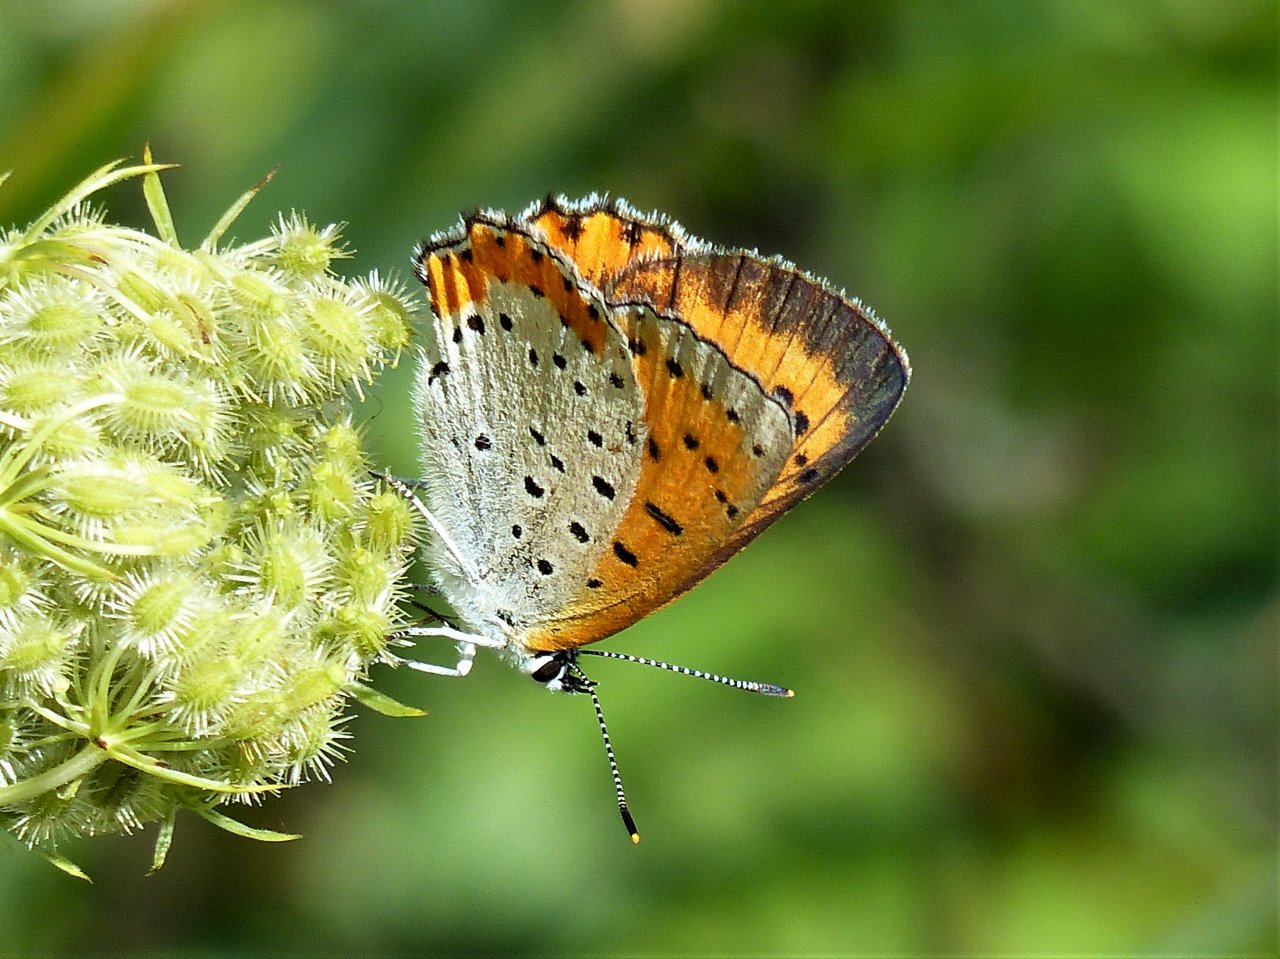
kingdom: Animalia
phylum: Arthropoda
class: Insecta
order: Lepidoptera
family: Sesiidae
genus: Sesia
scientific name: Sesia Lycaena hyllus
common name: Bronze Copper
